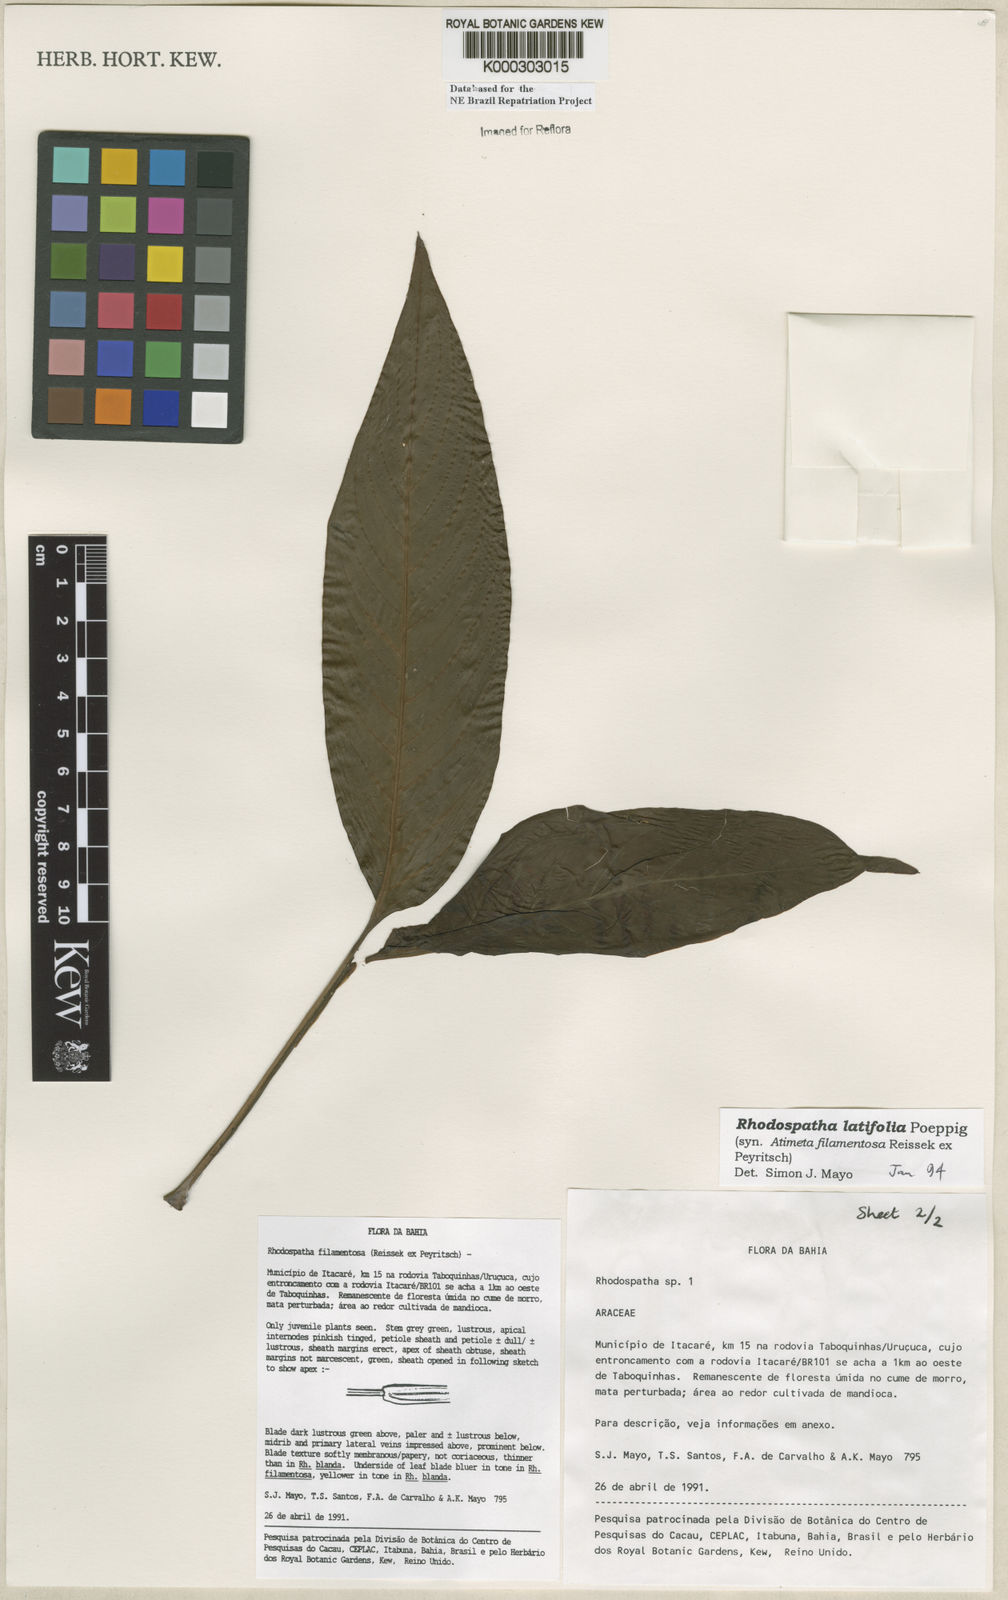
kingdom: Plantae
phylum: Tracheophyta
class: Liliopsida
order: Alismatales
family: Araceae
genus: Rhodospatha
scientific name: Rhodospatha latifolia
